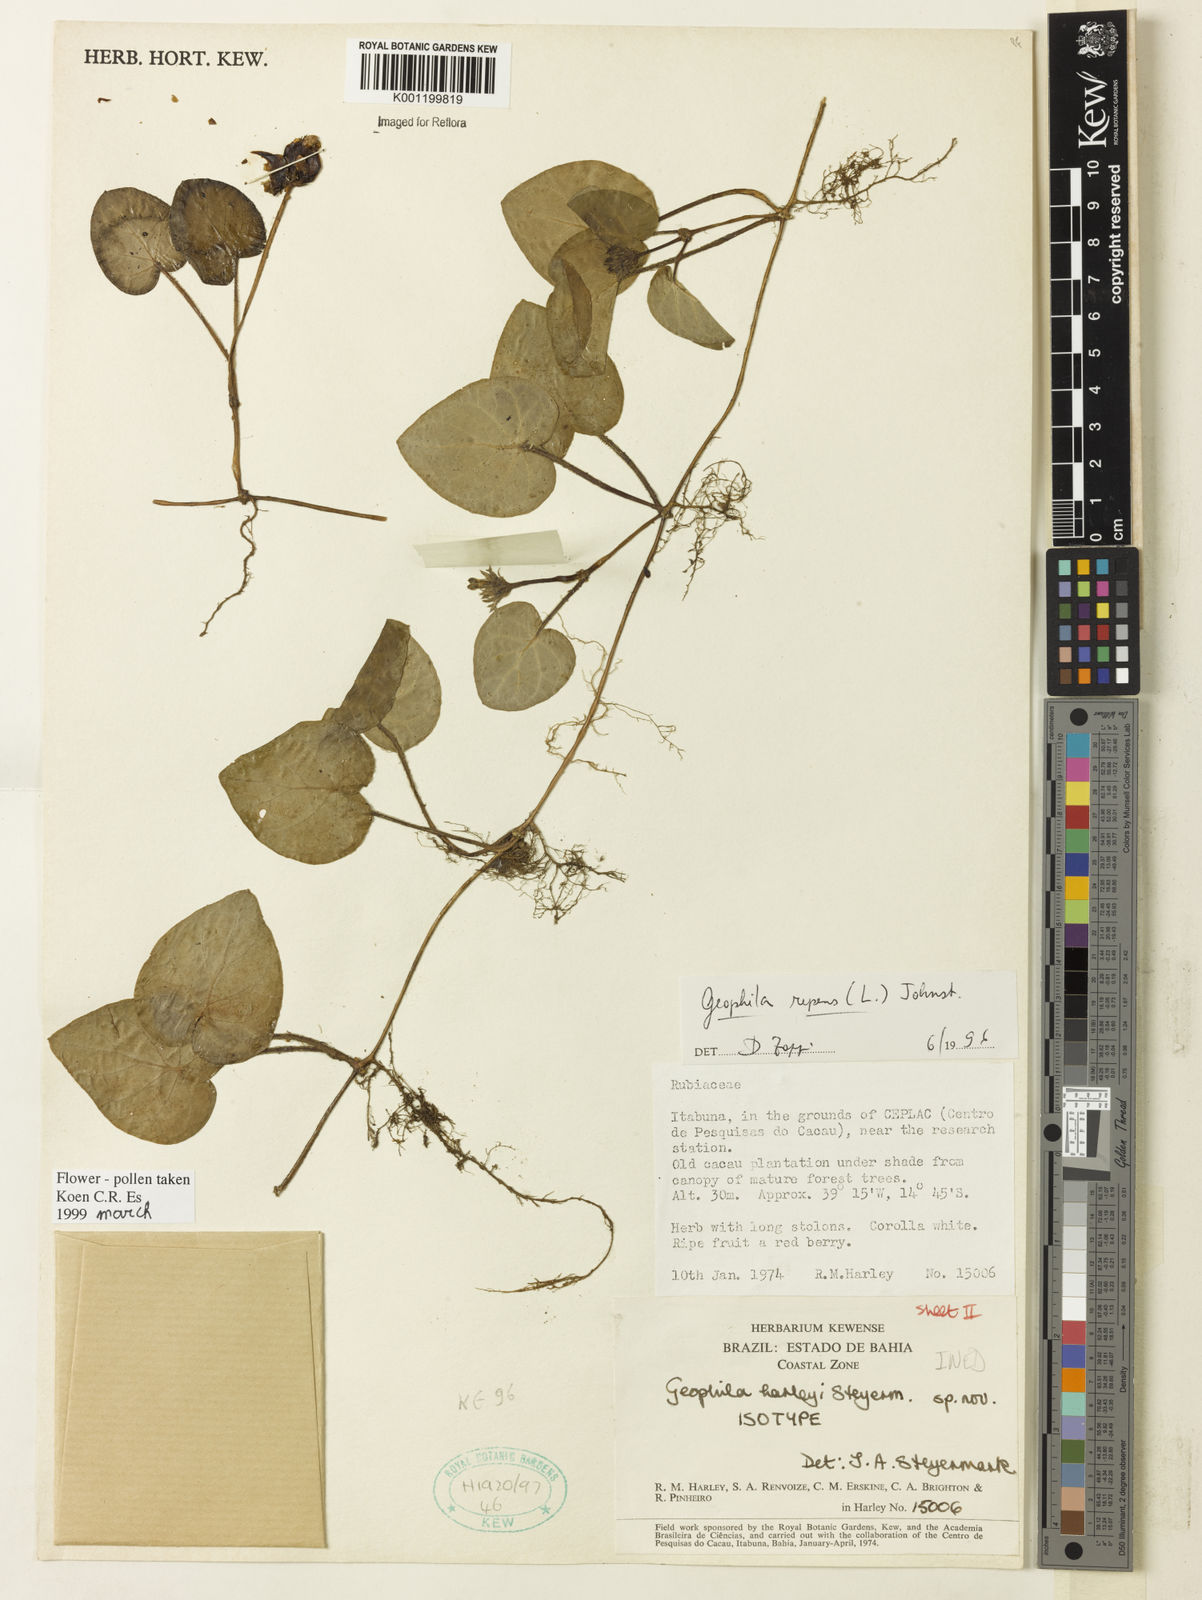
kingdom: Plantae
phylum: Tracheophyta
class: Magnoliopsida
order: Gentianales
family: Rubiaceae
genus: Geophila
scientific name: Geophila repens
